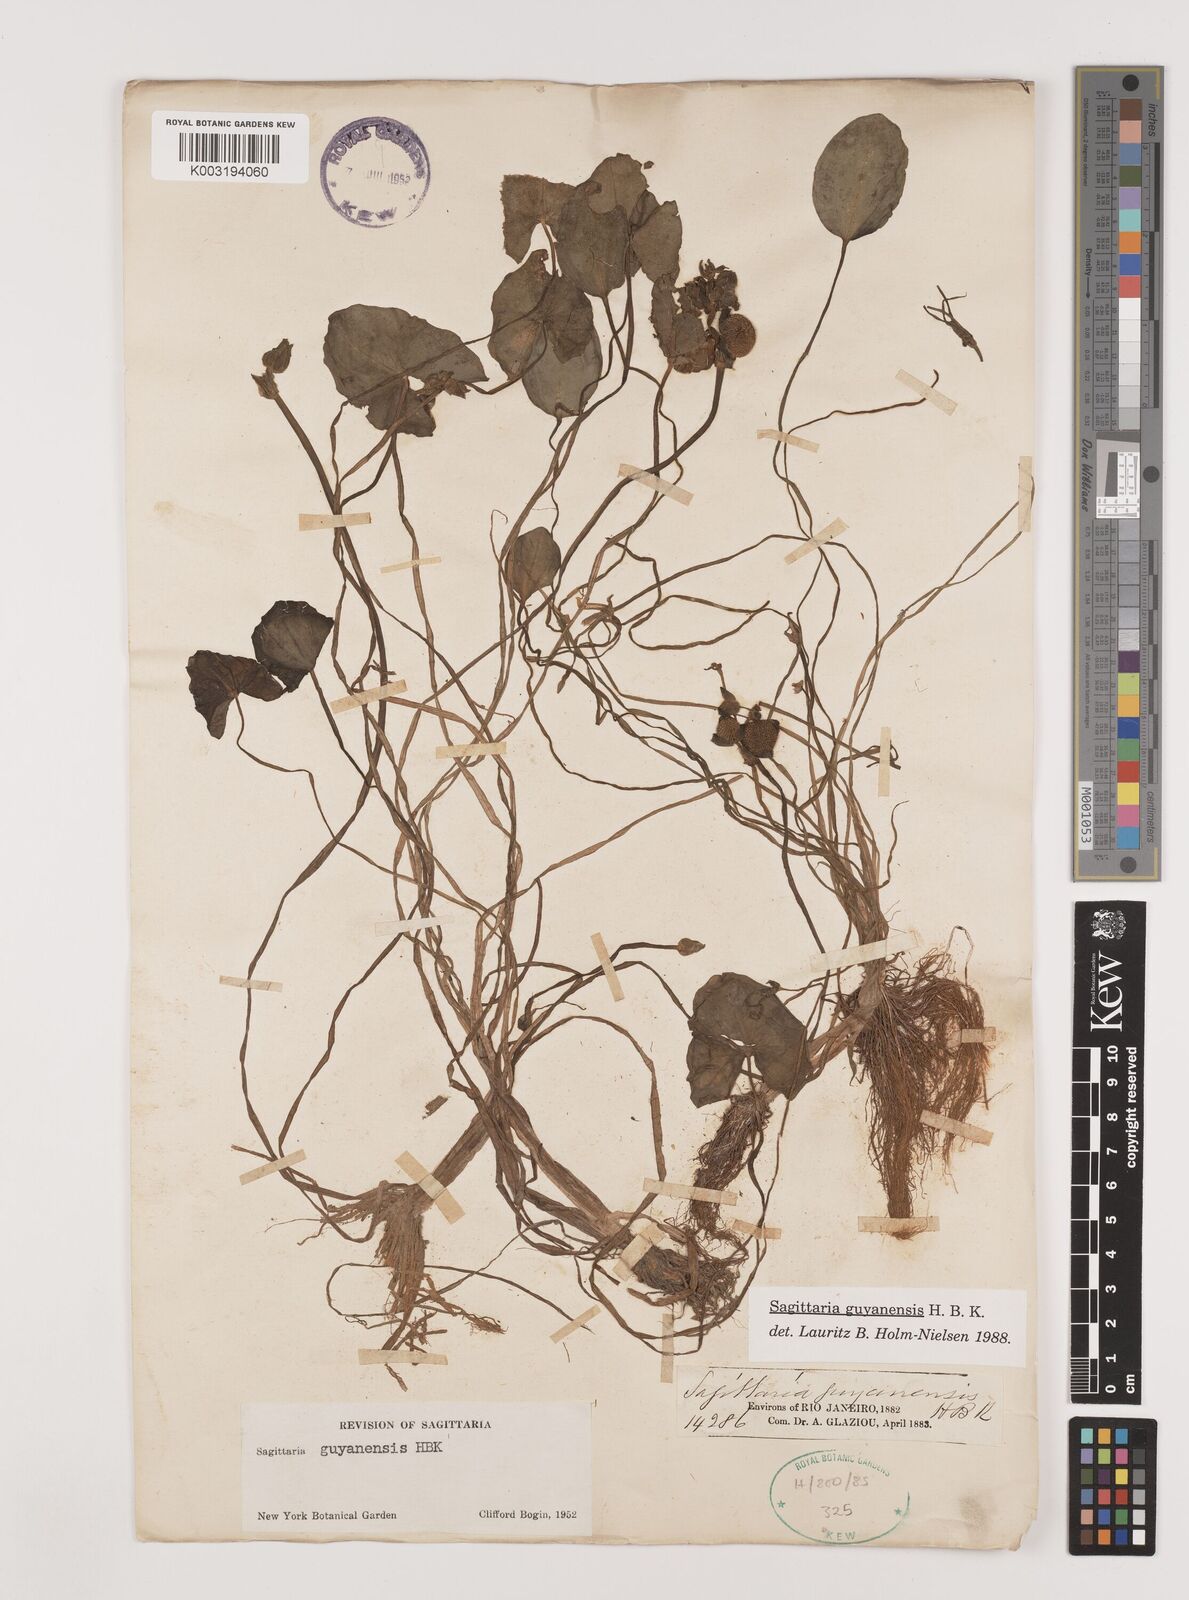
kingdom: Plantae
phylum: Tracheophyta
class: Liliopsida
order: Alismatales
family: Alismataceae
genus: Sagittaria
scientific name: Sagittaria guayanensis
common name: Guyanese arrowhead
